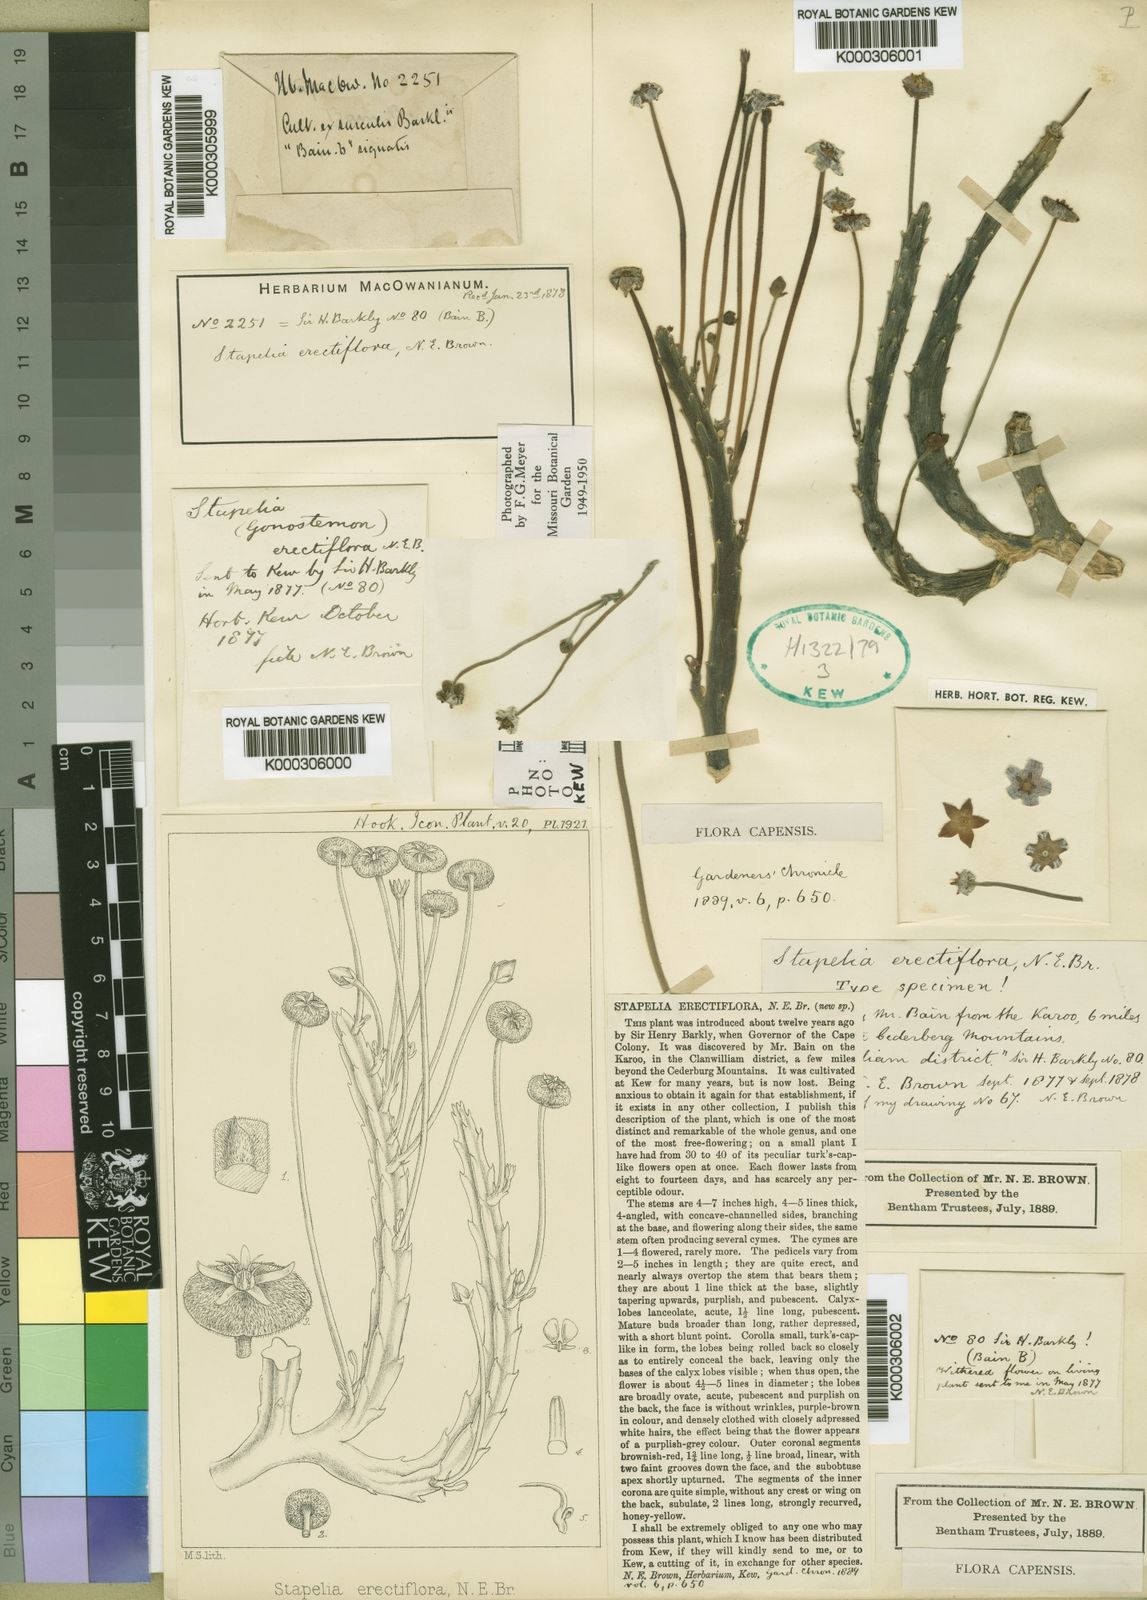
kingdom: Plantae
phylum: Tracheophyta
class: Magnoliopsida
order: Gentianales
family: Apocynaceae
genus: Ceropegia
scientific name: Ceropegia erectiflora
